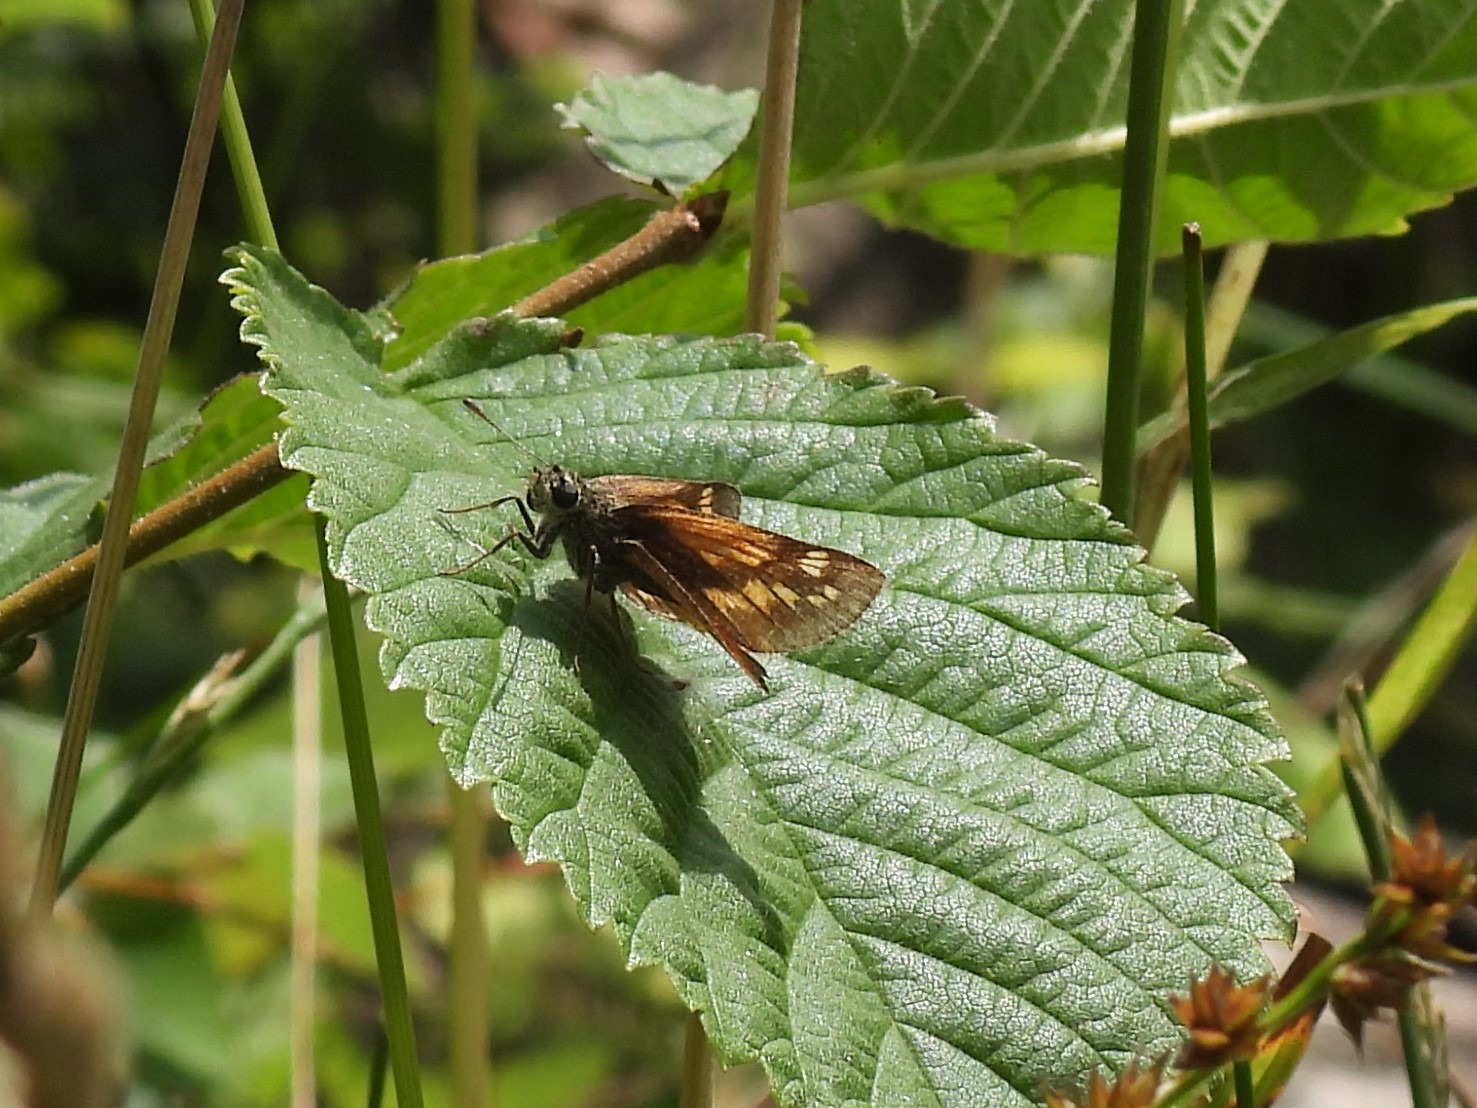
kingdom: Animalia
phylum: Arthropoda
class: Insecta
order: Lepidoptera
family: Hesperiidae
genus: Ochlodes
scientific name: Ochlodes venata
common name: Stor bredpande
